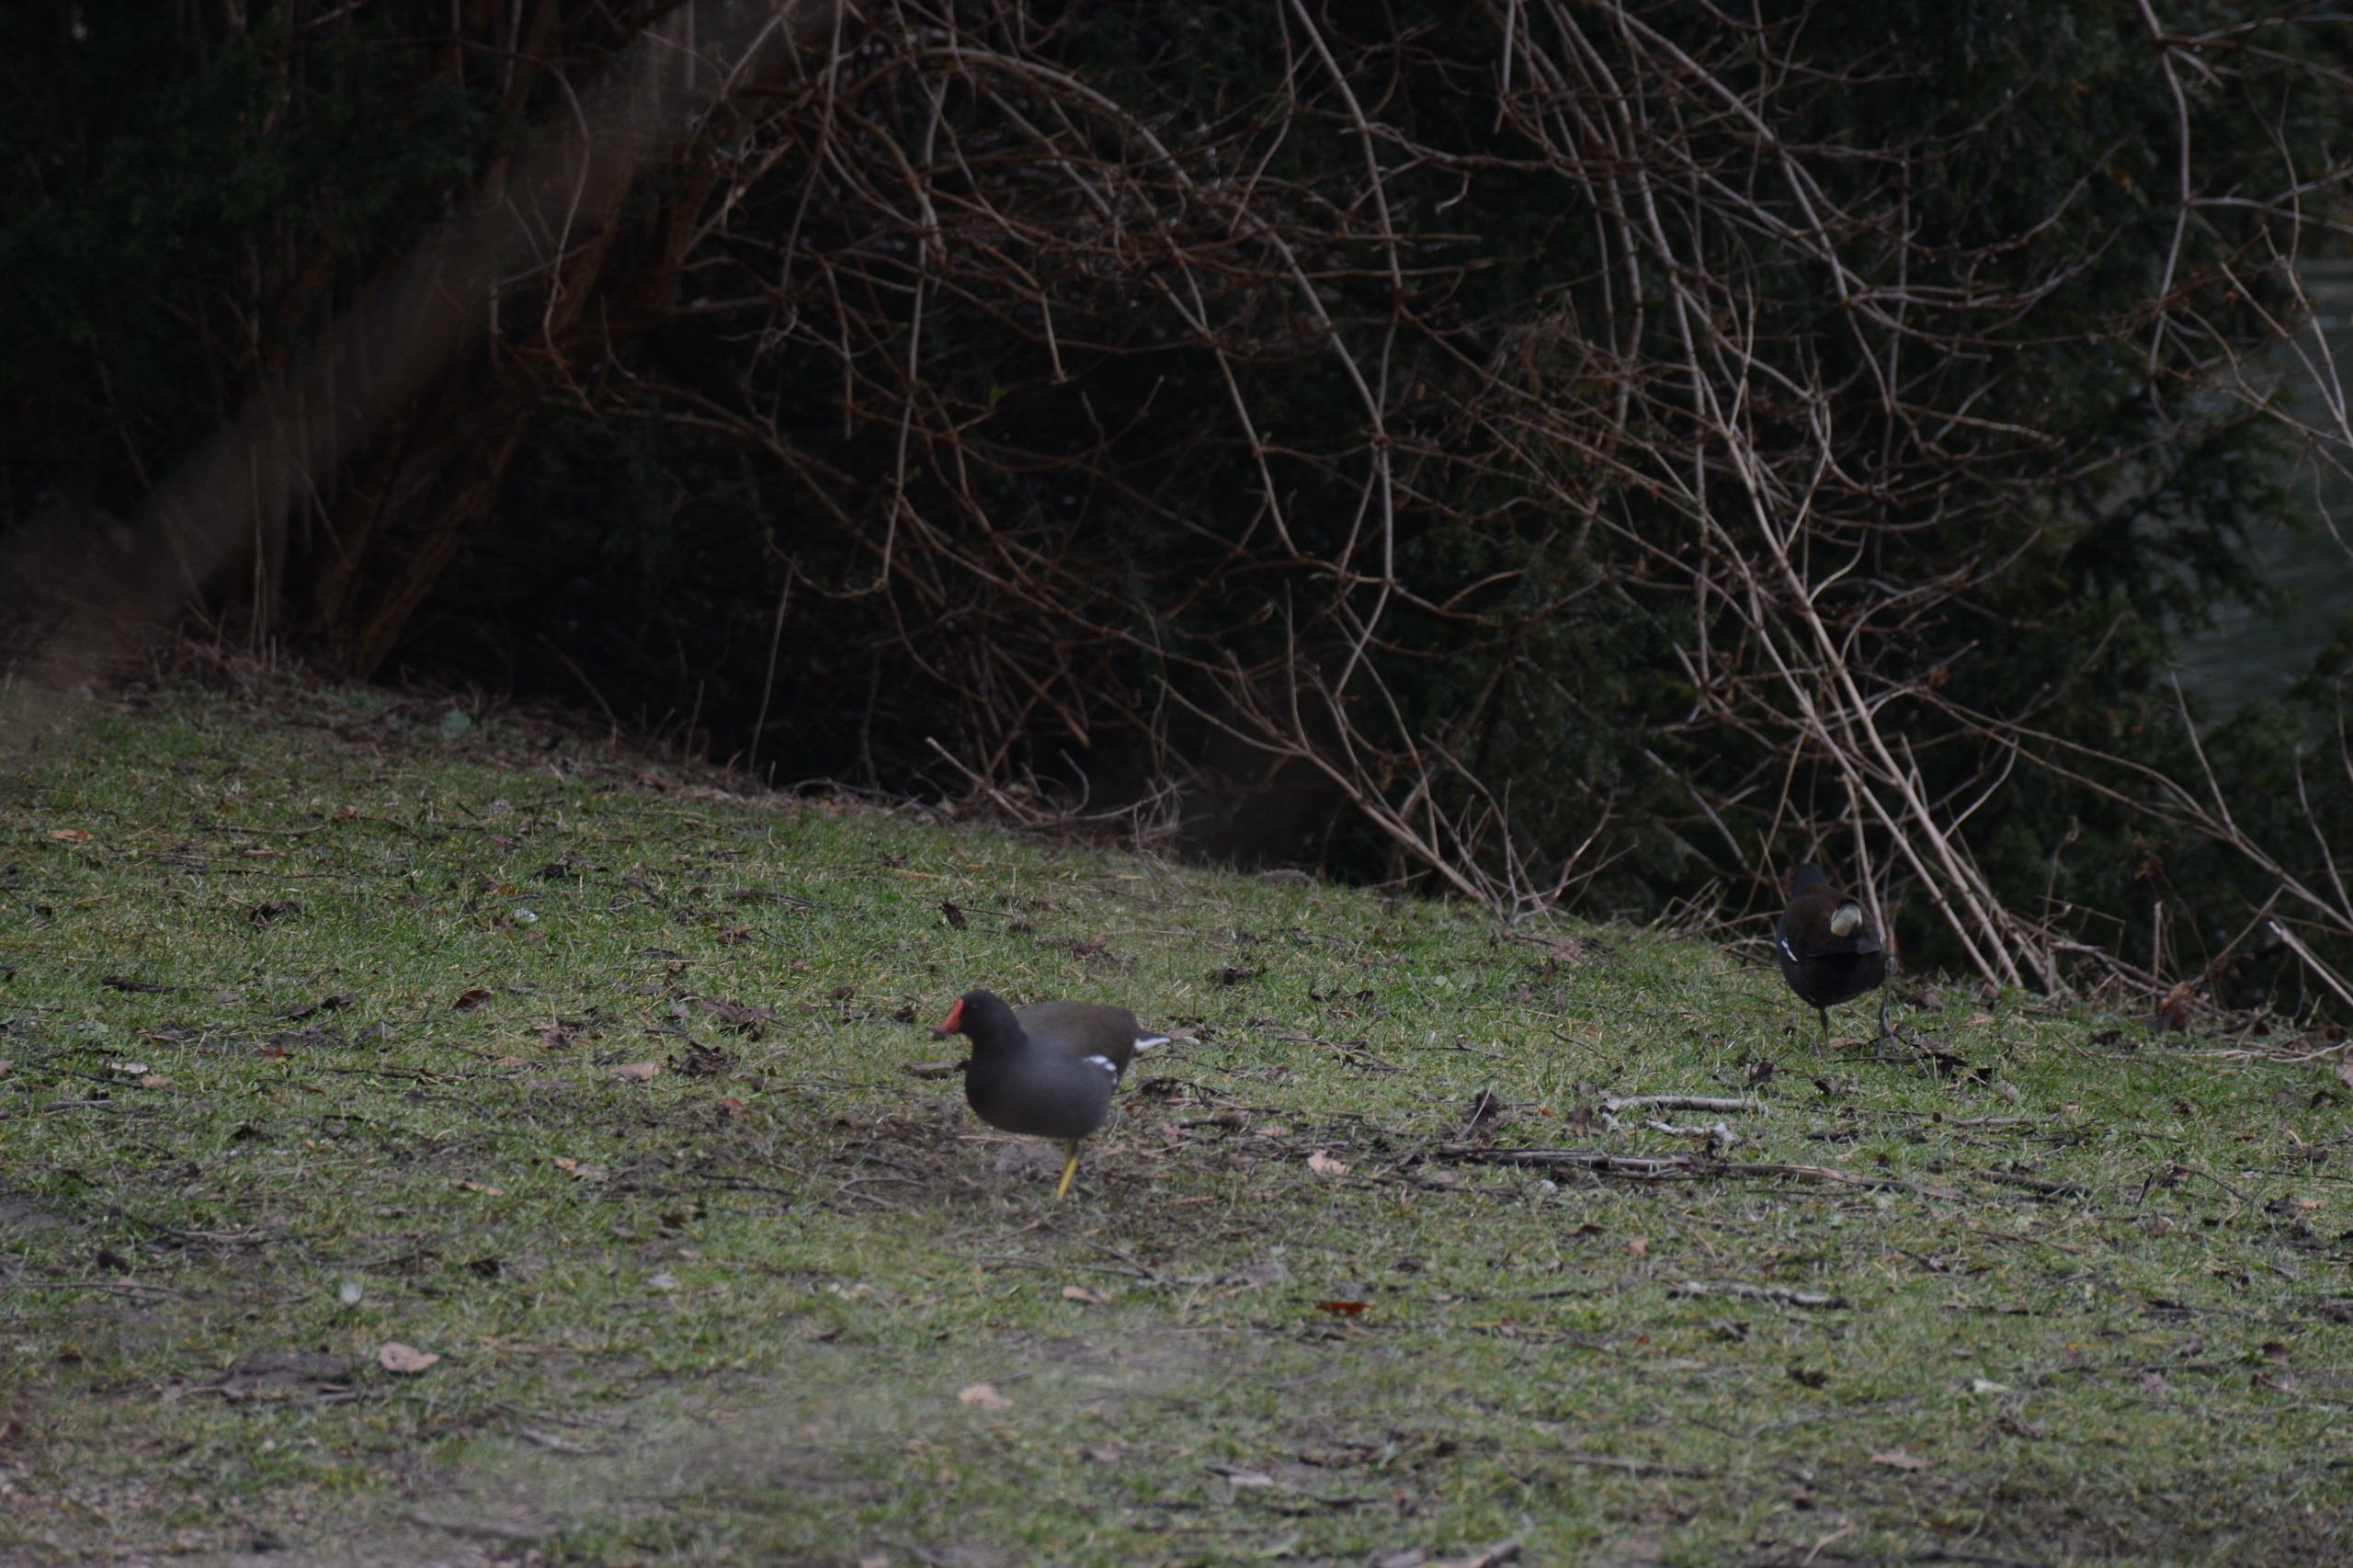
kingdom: Animalia
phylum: Chordata
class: Aves
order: Gruiformes
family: Rallidae
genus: Gallinula
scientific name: Gallinula chloropus
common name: Grønbenet rørhøne
